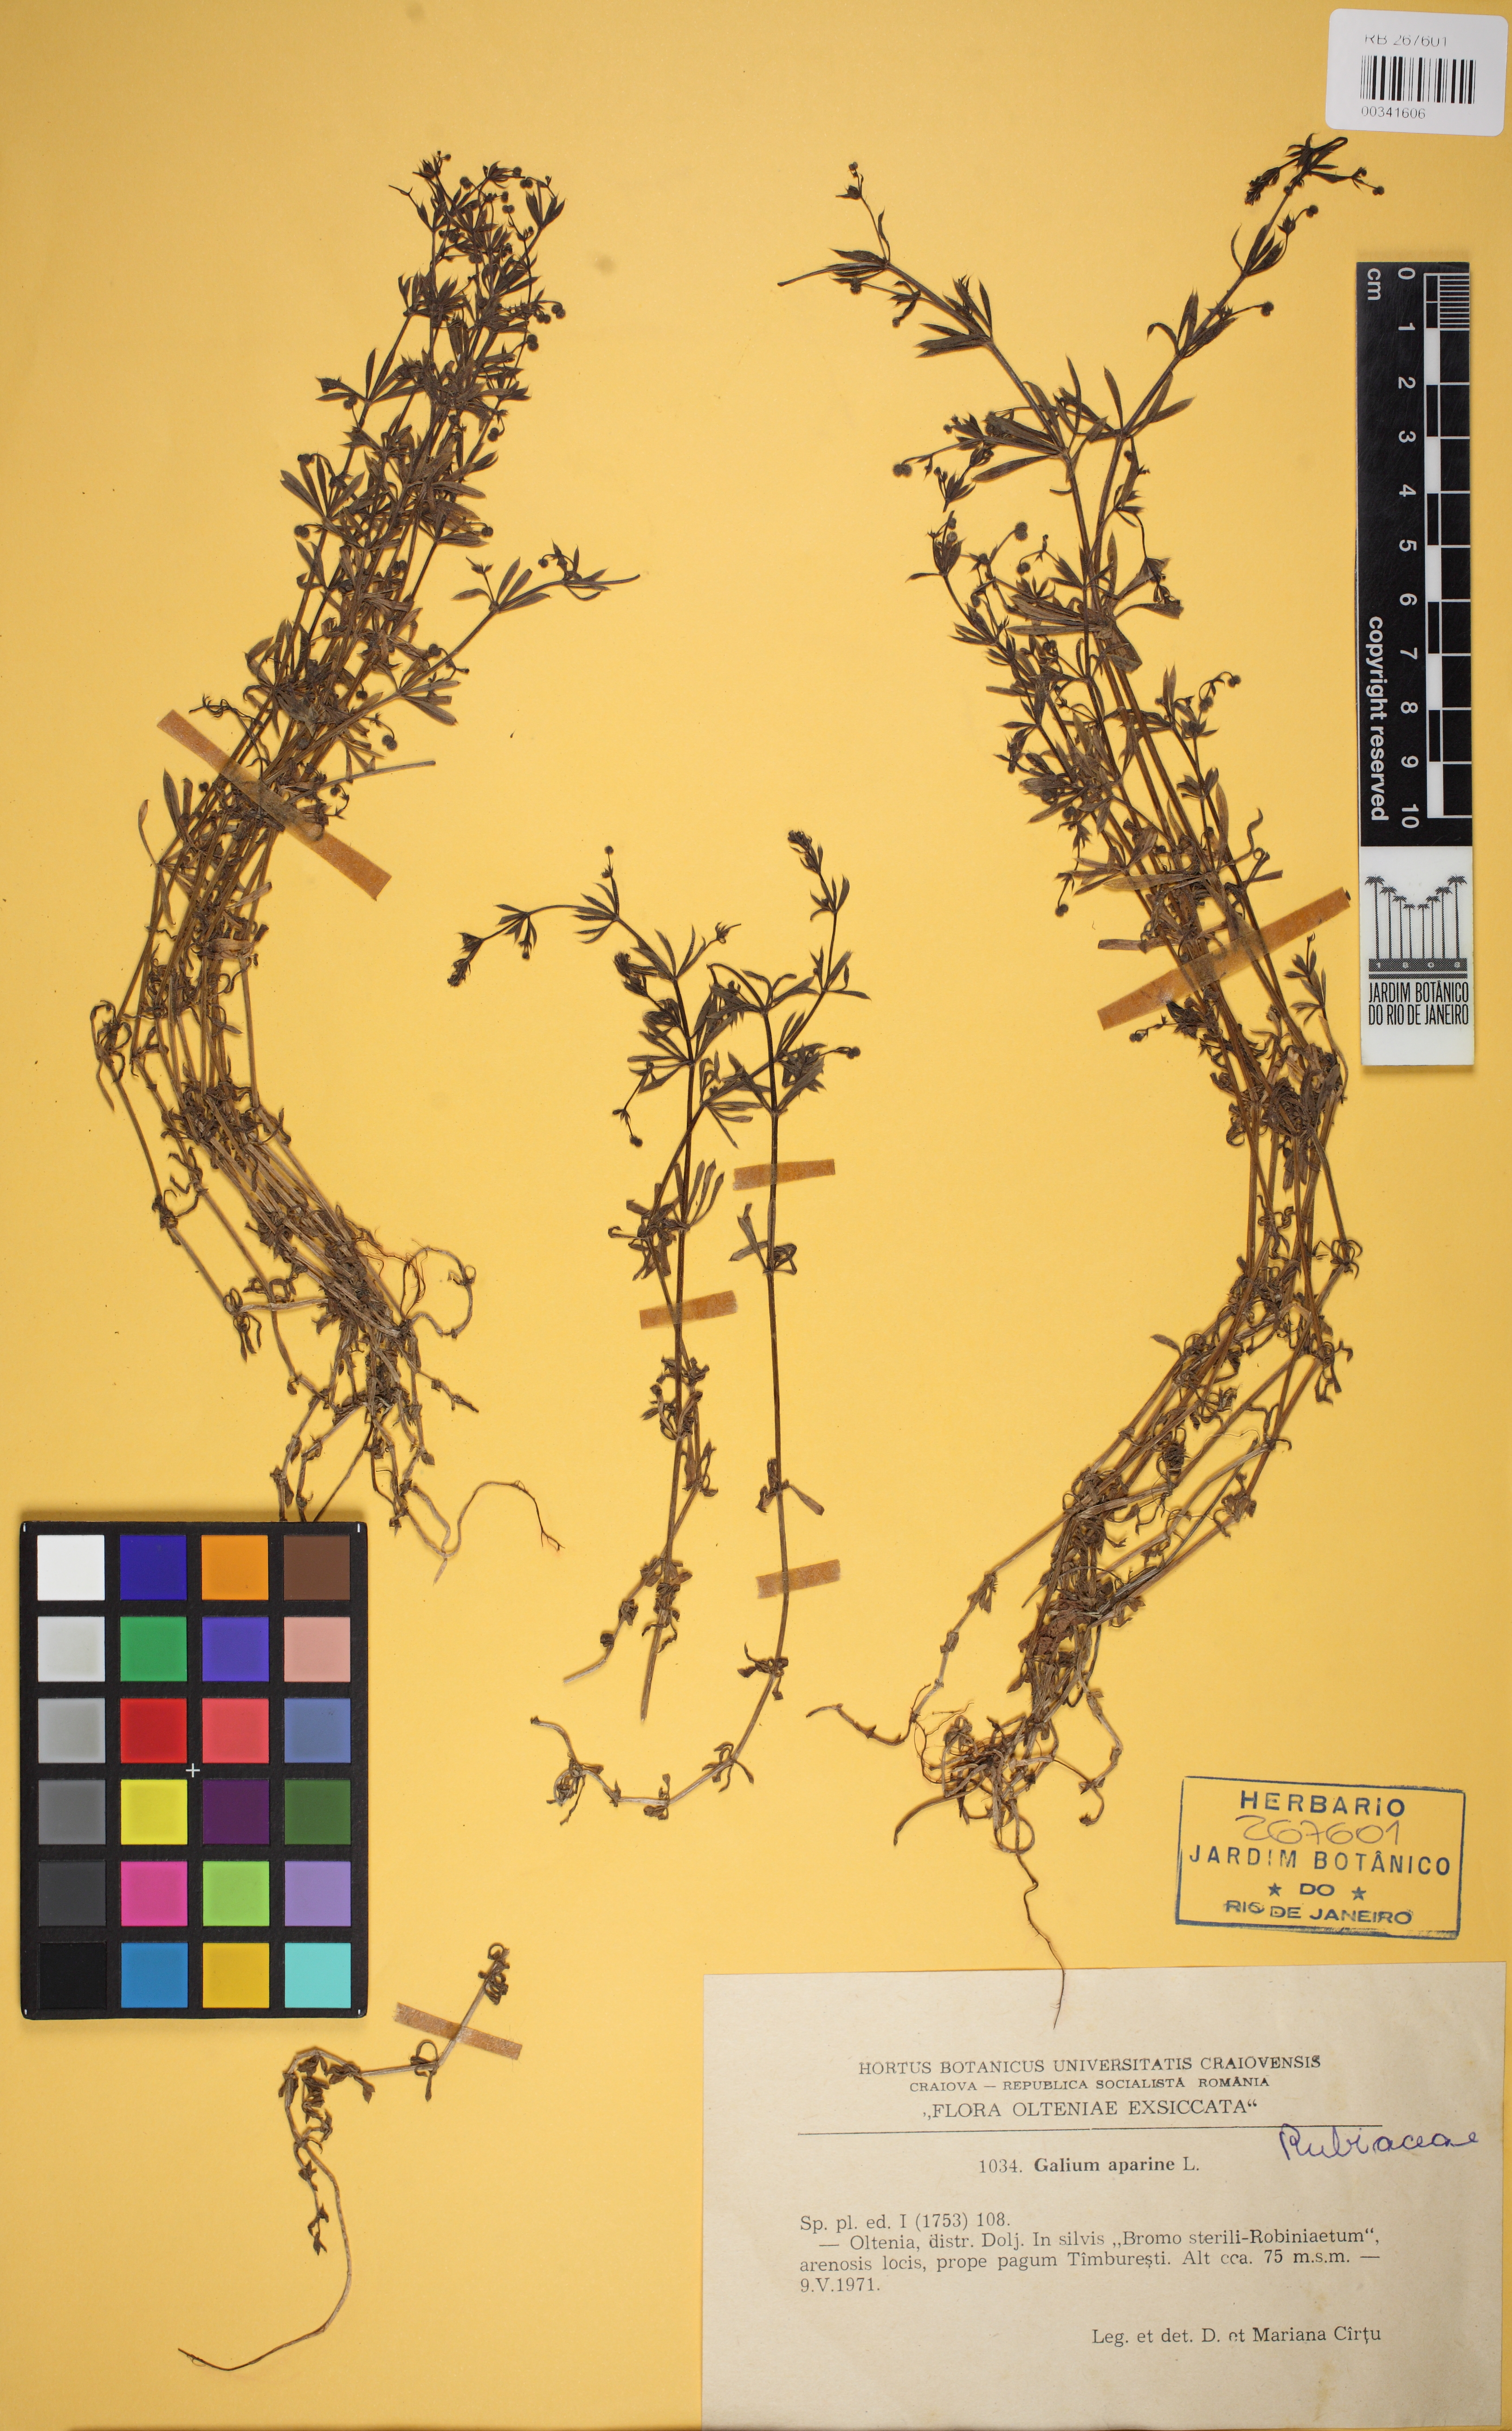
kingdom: Plantae
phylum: Tracheophyta
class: Magnoliopsida
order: Gentianales
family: Rubiaceae
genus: Galium
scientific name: Galium aparine
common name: Cleavers
